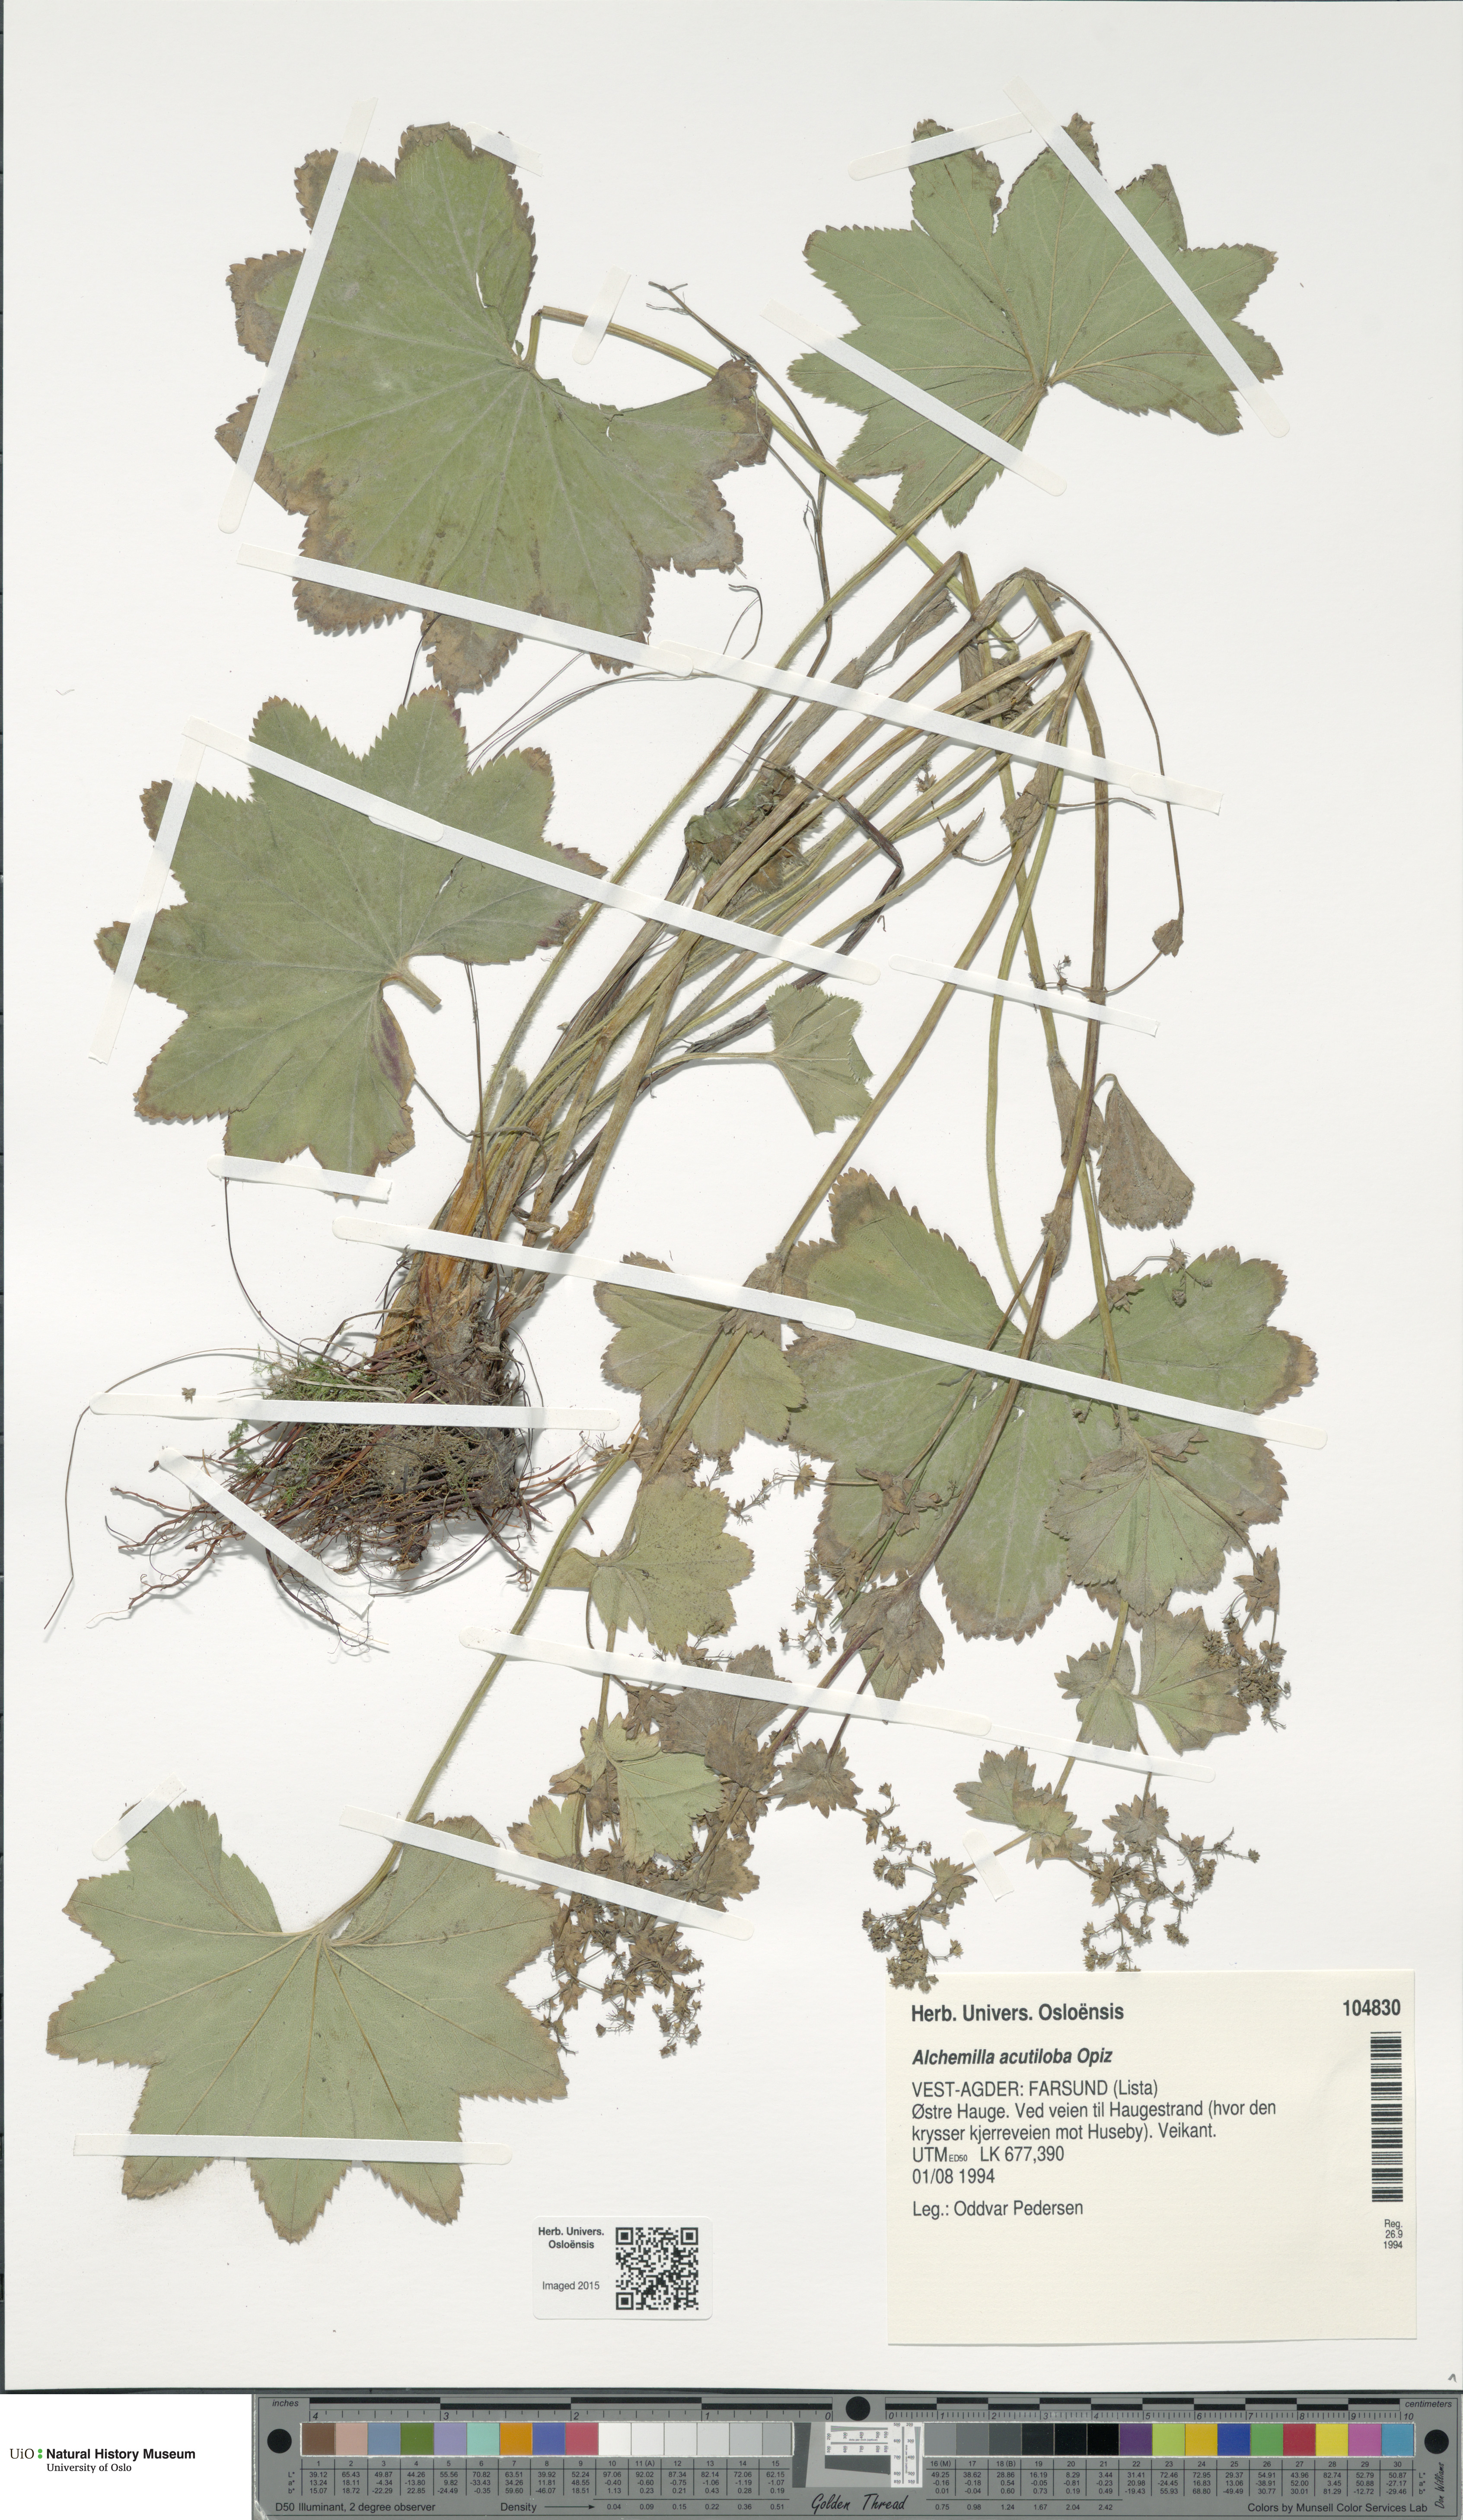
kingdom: Plantae
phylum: Tracheophyta
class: Magnoliopsida
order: Rosales
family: Rosaceae
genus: Alchemilla
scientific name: Alchemilla vulgaris
